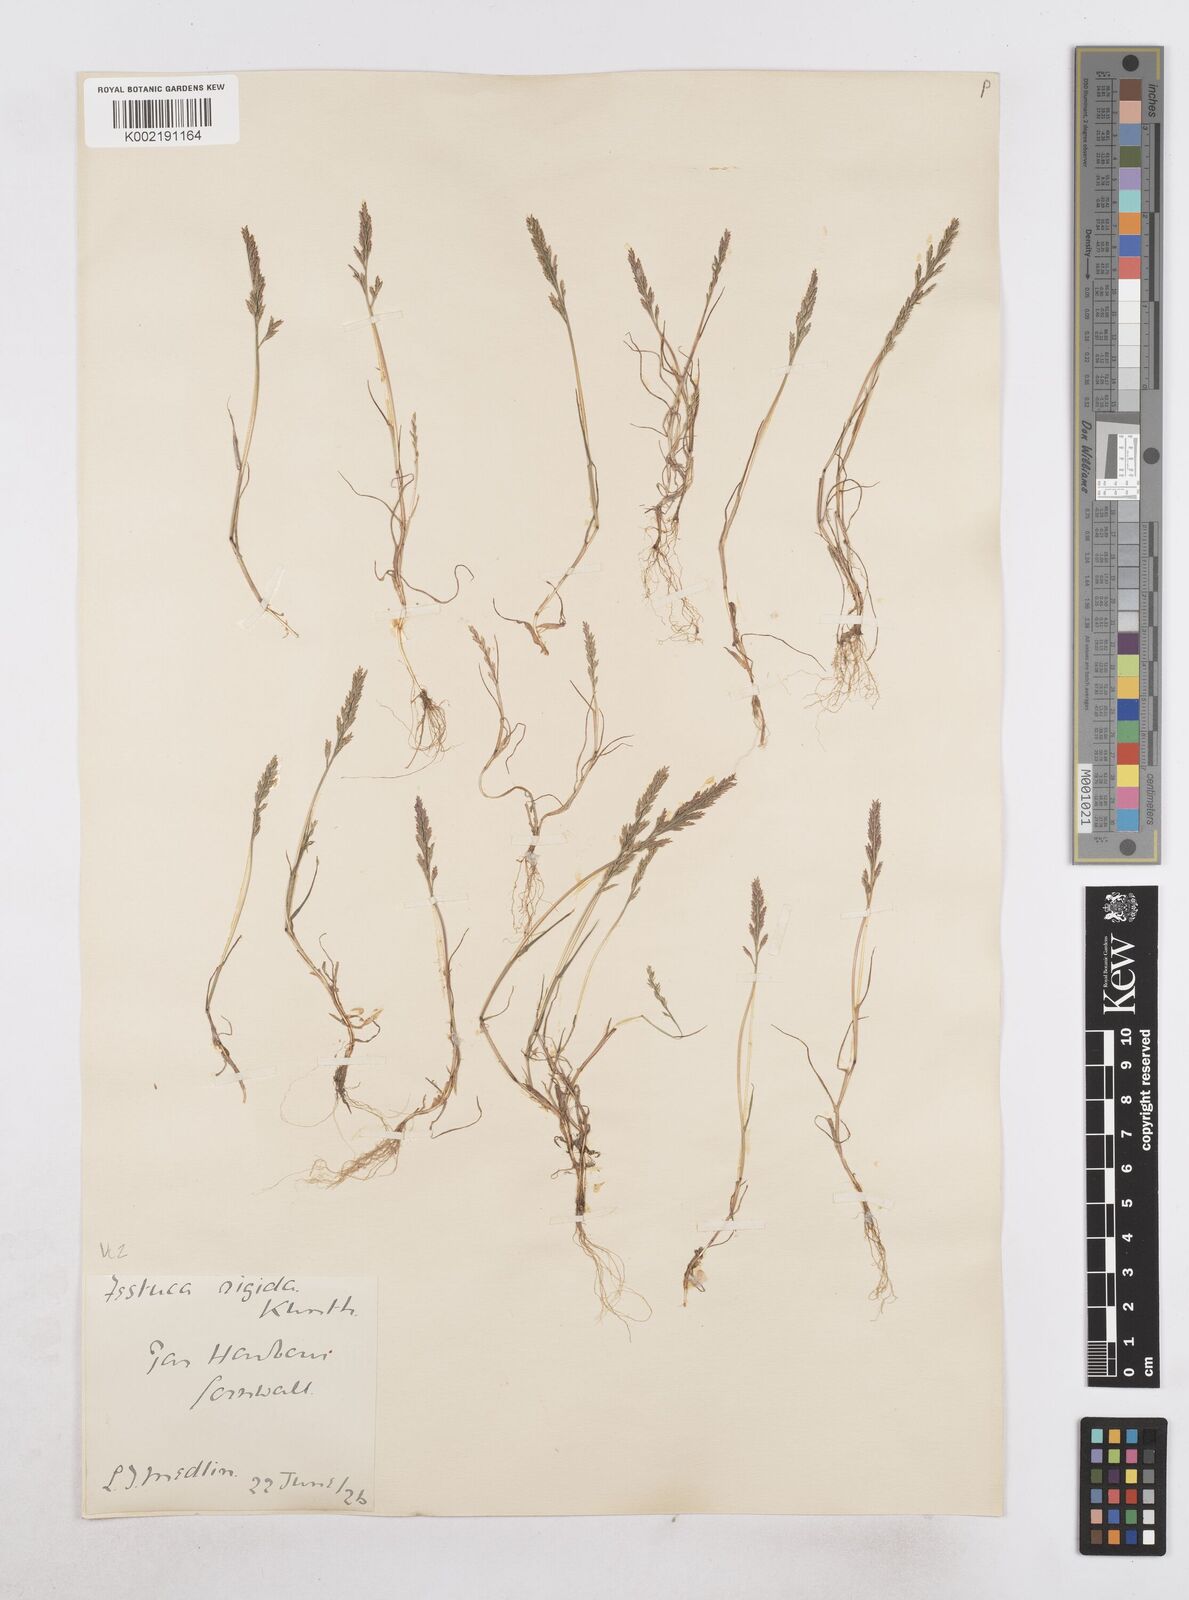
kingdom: Plantae
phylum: Tracheophyta
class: Liliopsida
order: Poales
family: Poaceae
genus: Catapodium
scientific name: Catapodium rigidum
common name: Fern-grass
